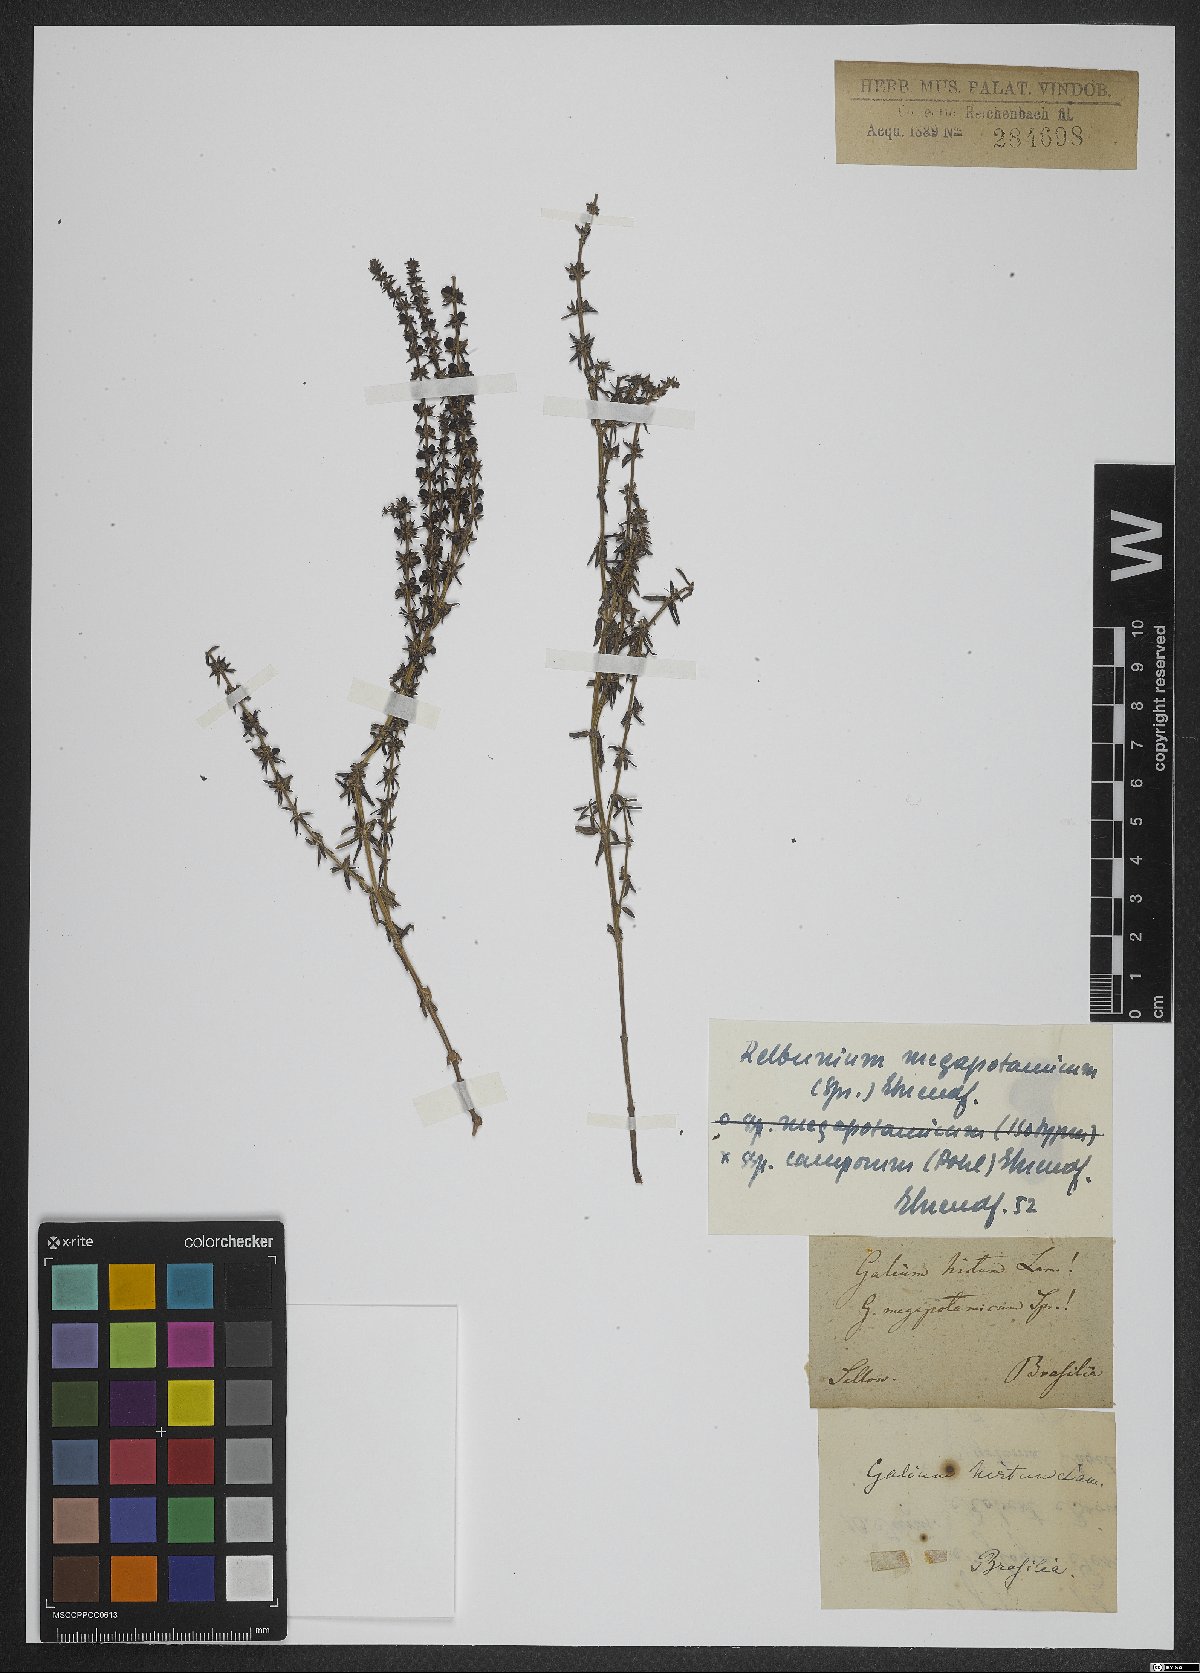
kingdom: Plantae
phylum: Tracheophyta
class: Magnoliopsida
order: Gentianales
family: Rubiaceae
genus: Galium
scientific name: Galium megapotamicum
